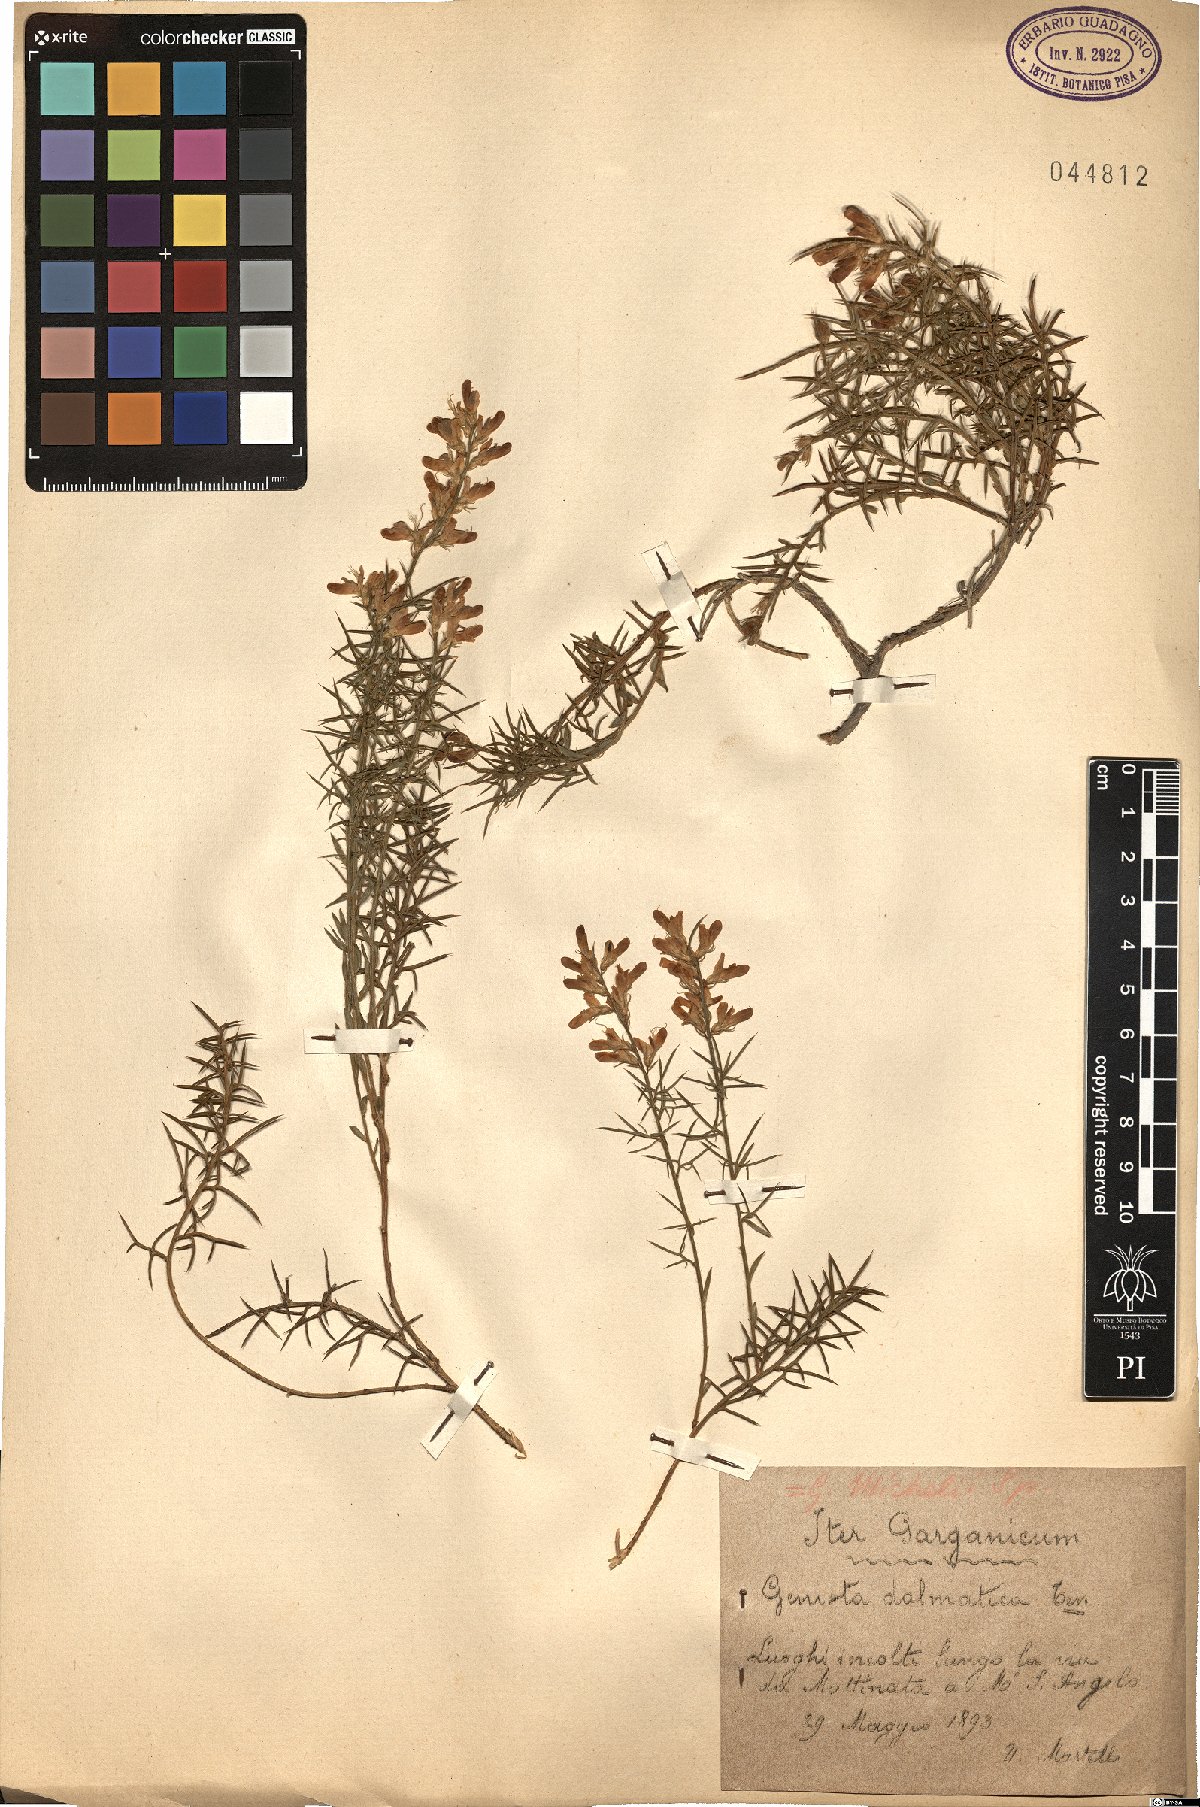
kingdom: Plantae
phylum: Tracheophyta
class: Magnoliopsida
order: Fabales
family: Fabaceae
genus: Genista
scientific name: Genista michelii
